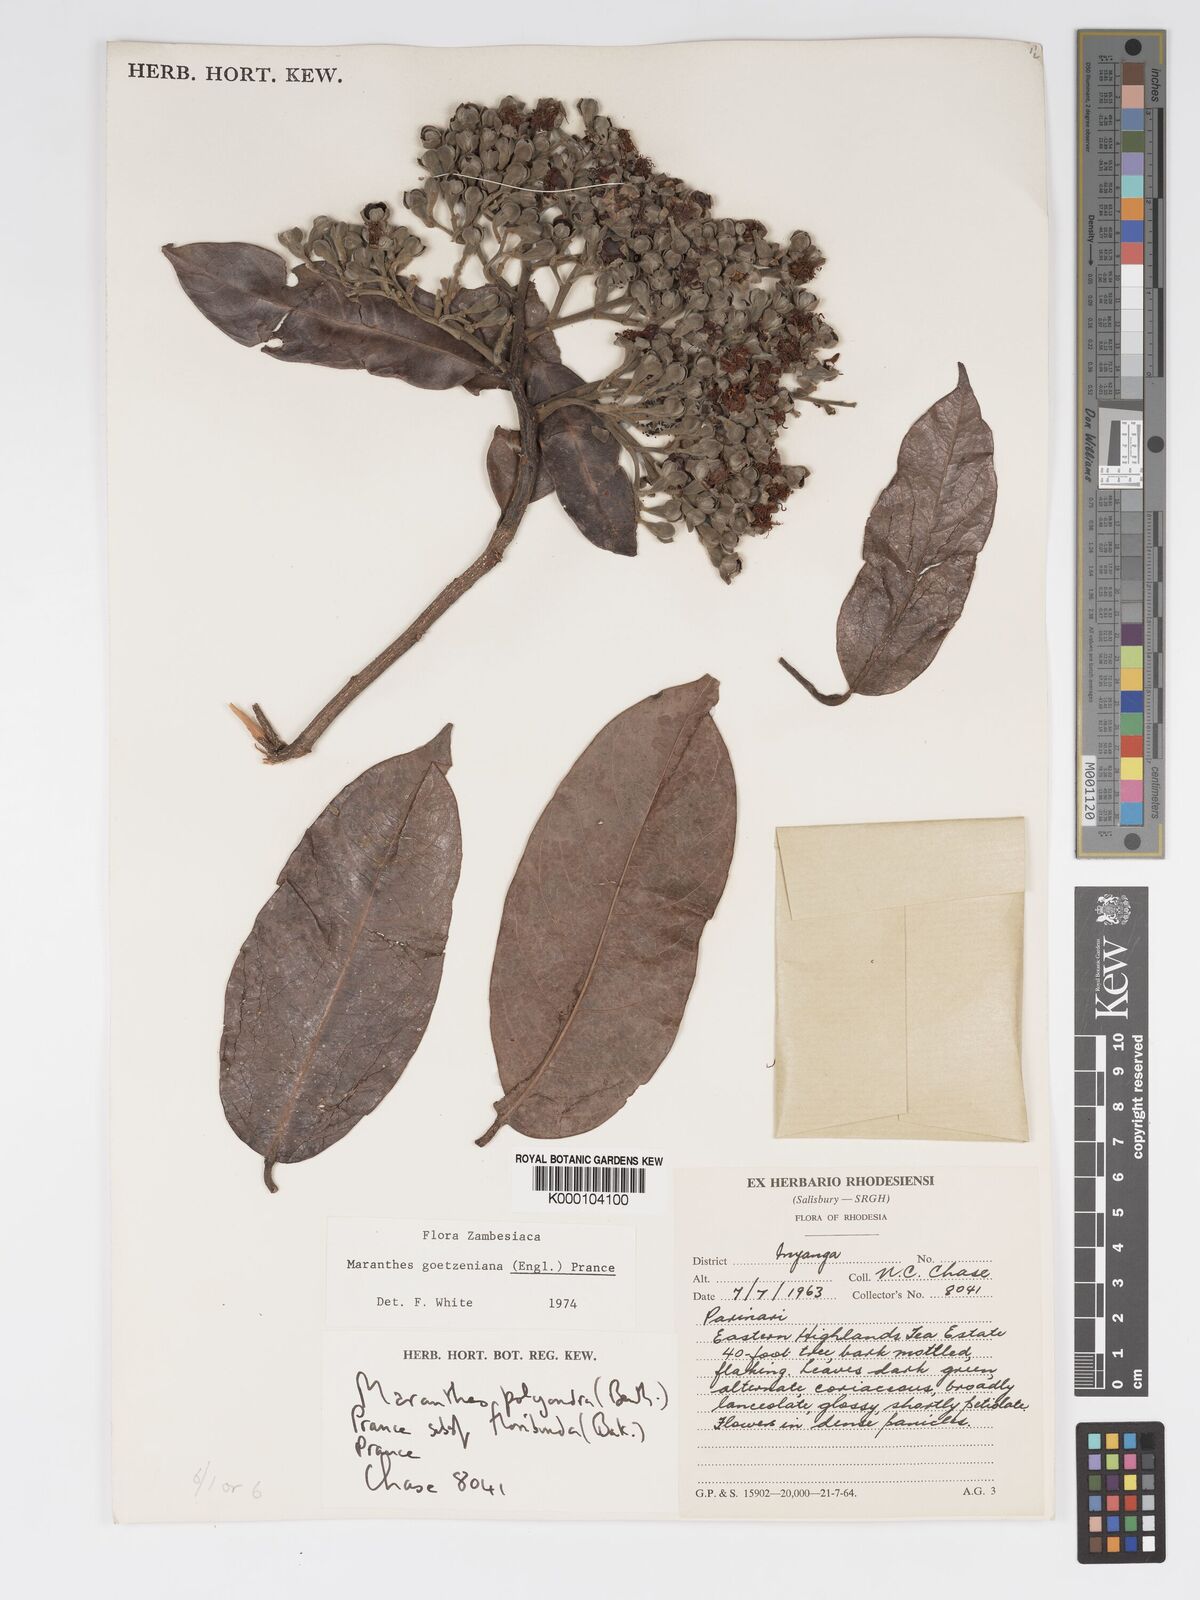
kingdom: Plantae
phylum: Tracheophyta
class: Magnoliopsida
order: Malpighiales
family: Chrysobalanaceae
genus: Maranthes
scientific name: Maranthes goetzeniana
